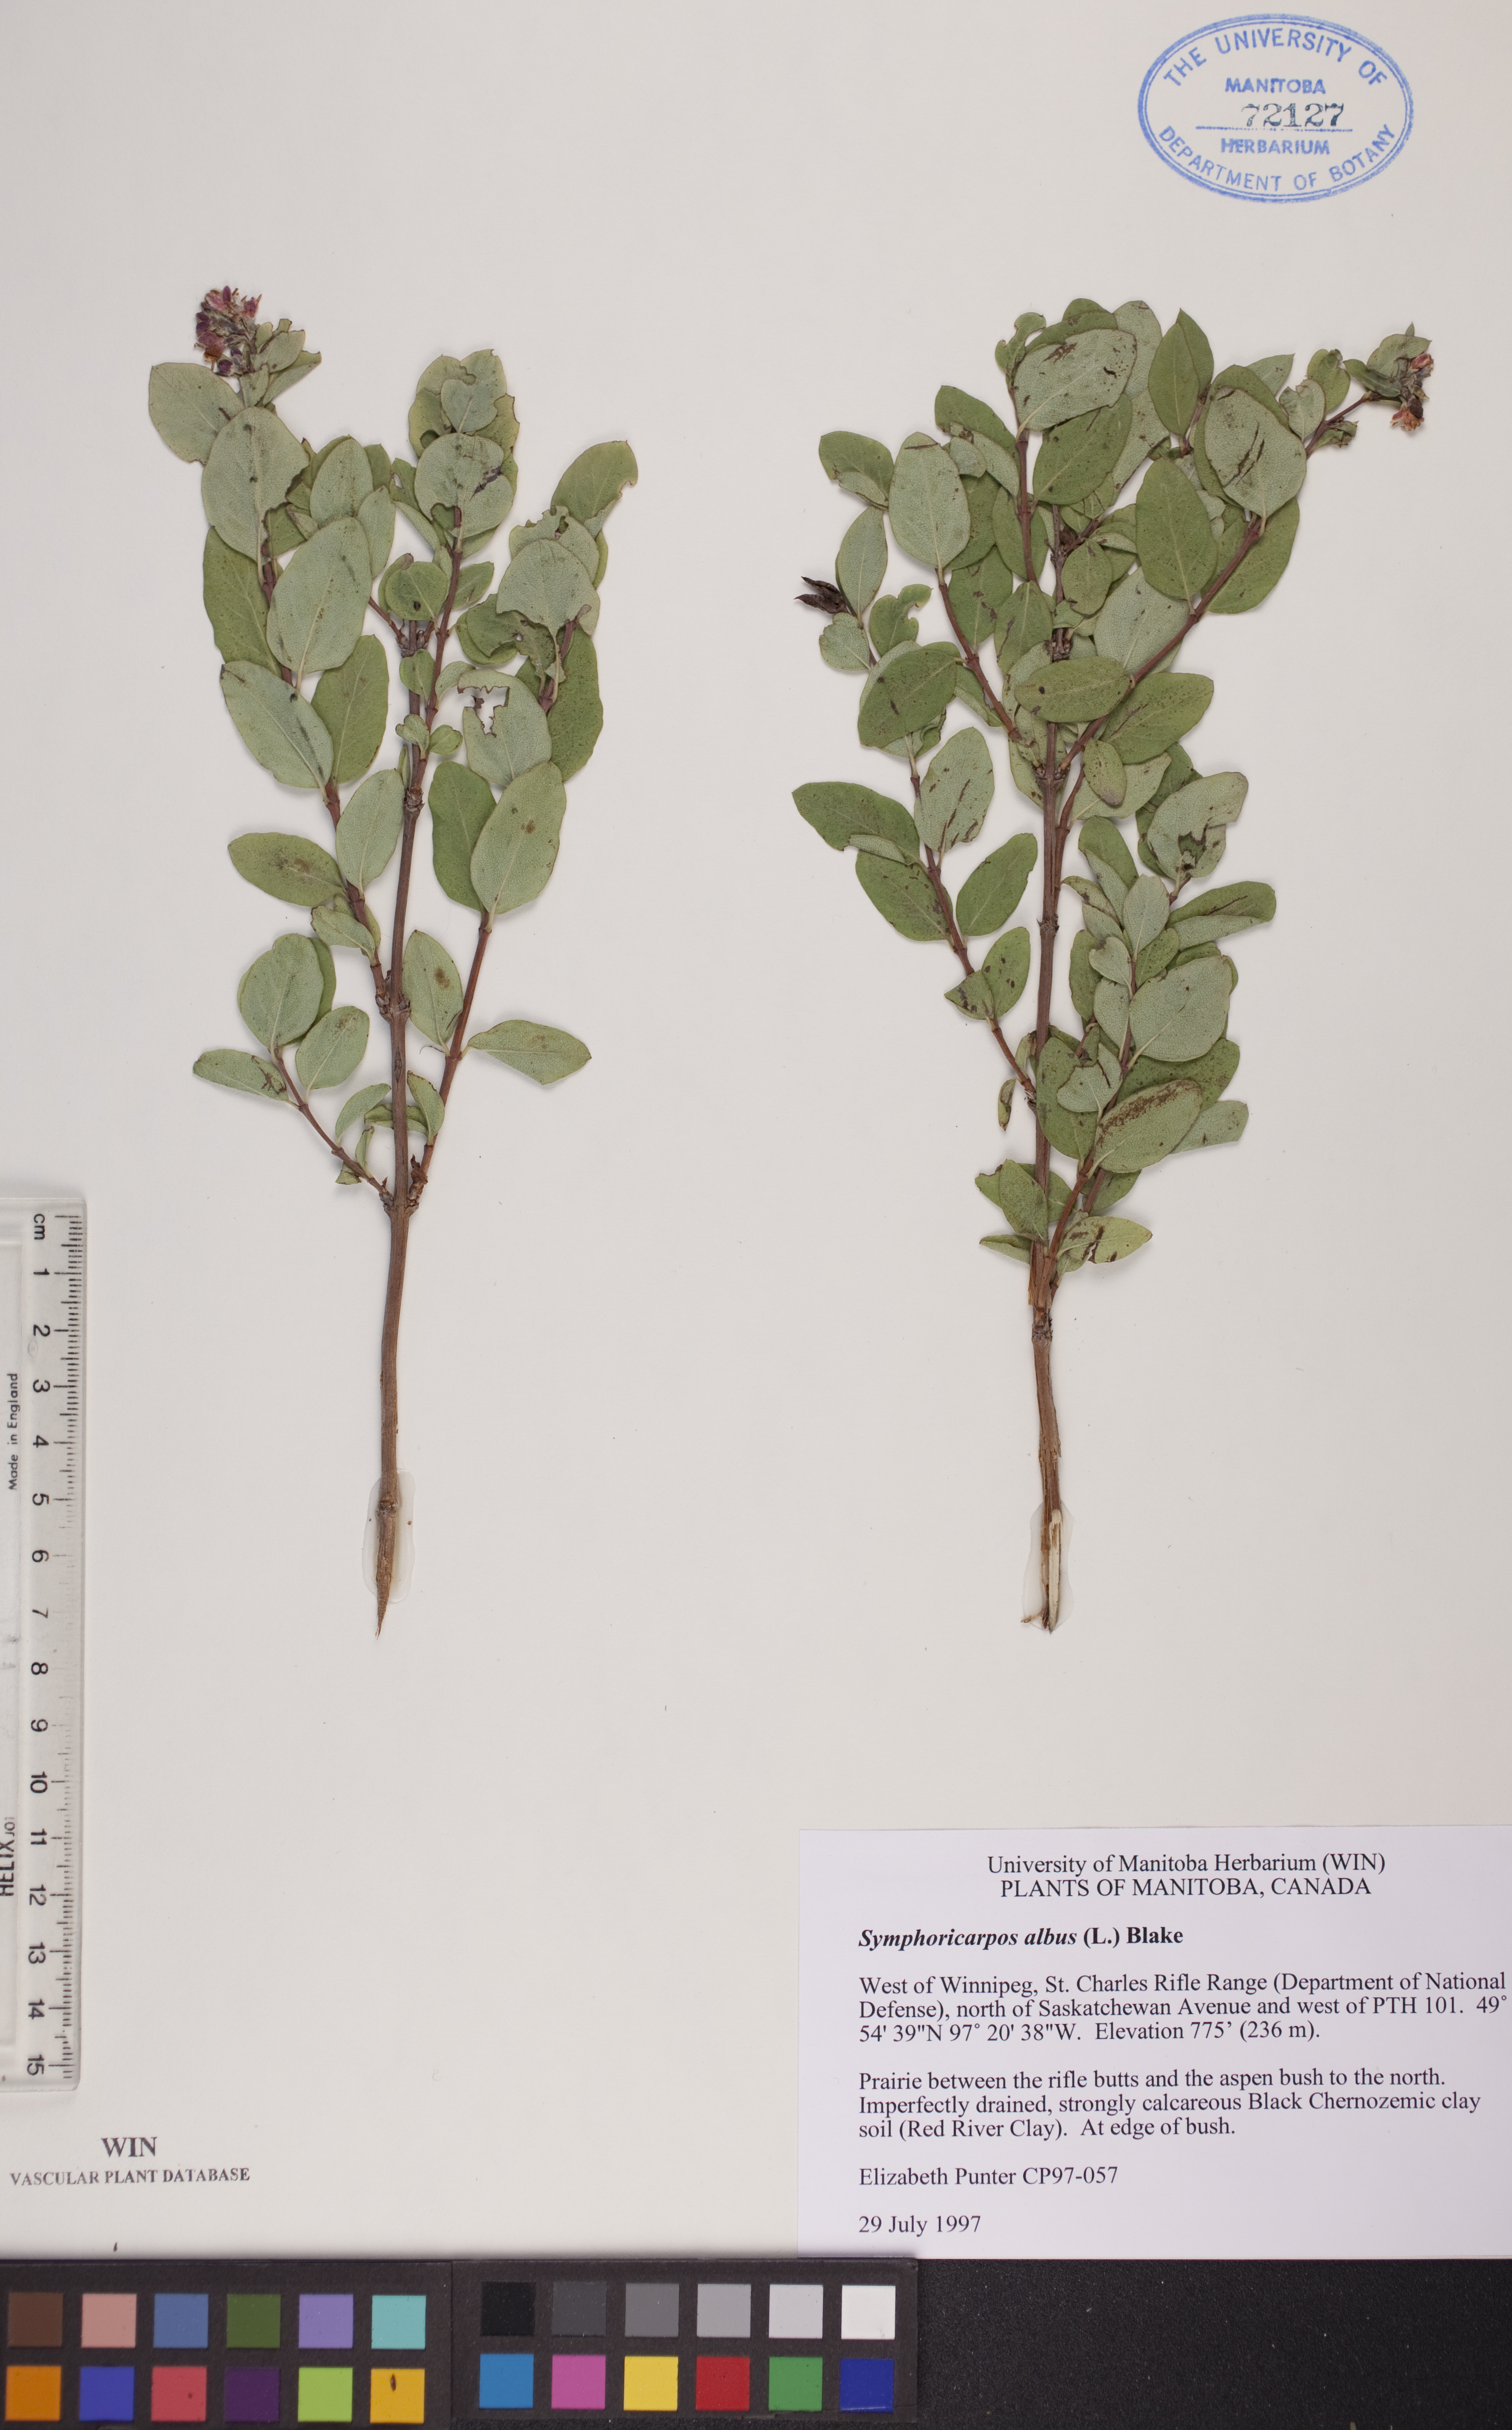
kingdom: Plantae
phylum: Tracheophyta
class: Magnoliopsida
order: Dipsacales
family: Caprifoliaceae
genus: Symphoricarpos
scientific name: Symphoricarpos albus
